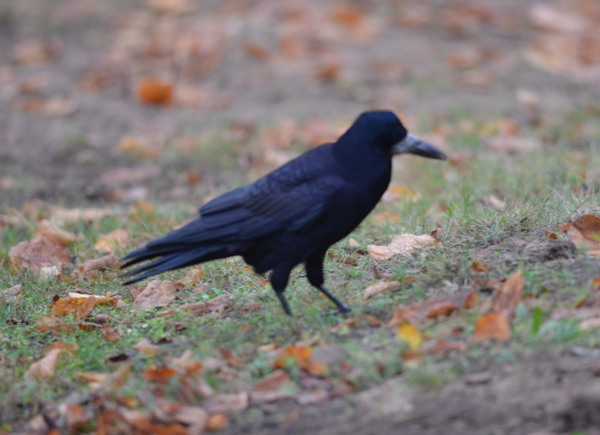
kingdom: Animalia
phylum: Chordata
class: Aves
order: Passeriformes
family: Corvidae
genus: Corvus
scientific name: Corvus frugilegus
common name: Rook
